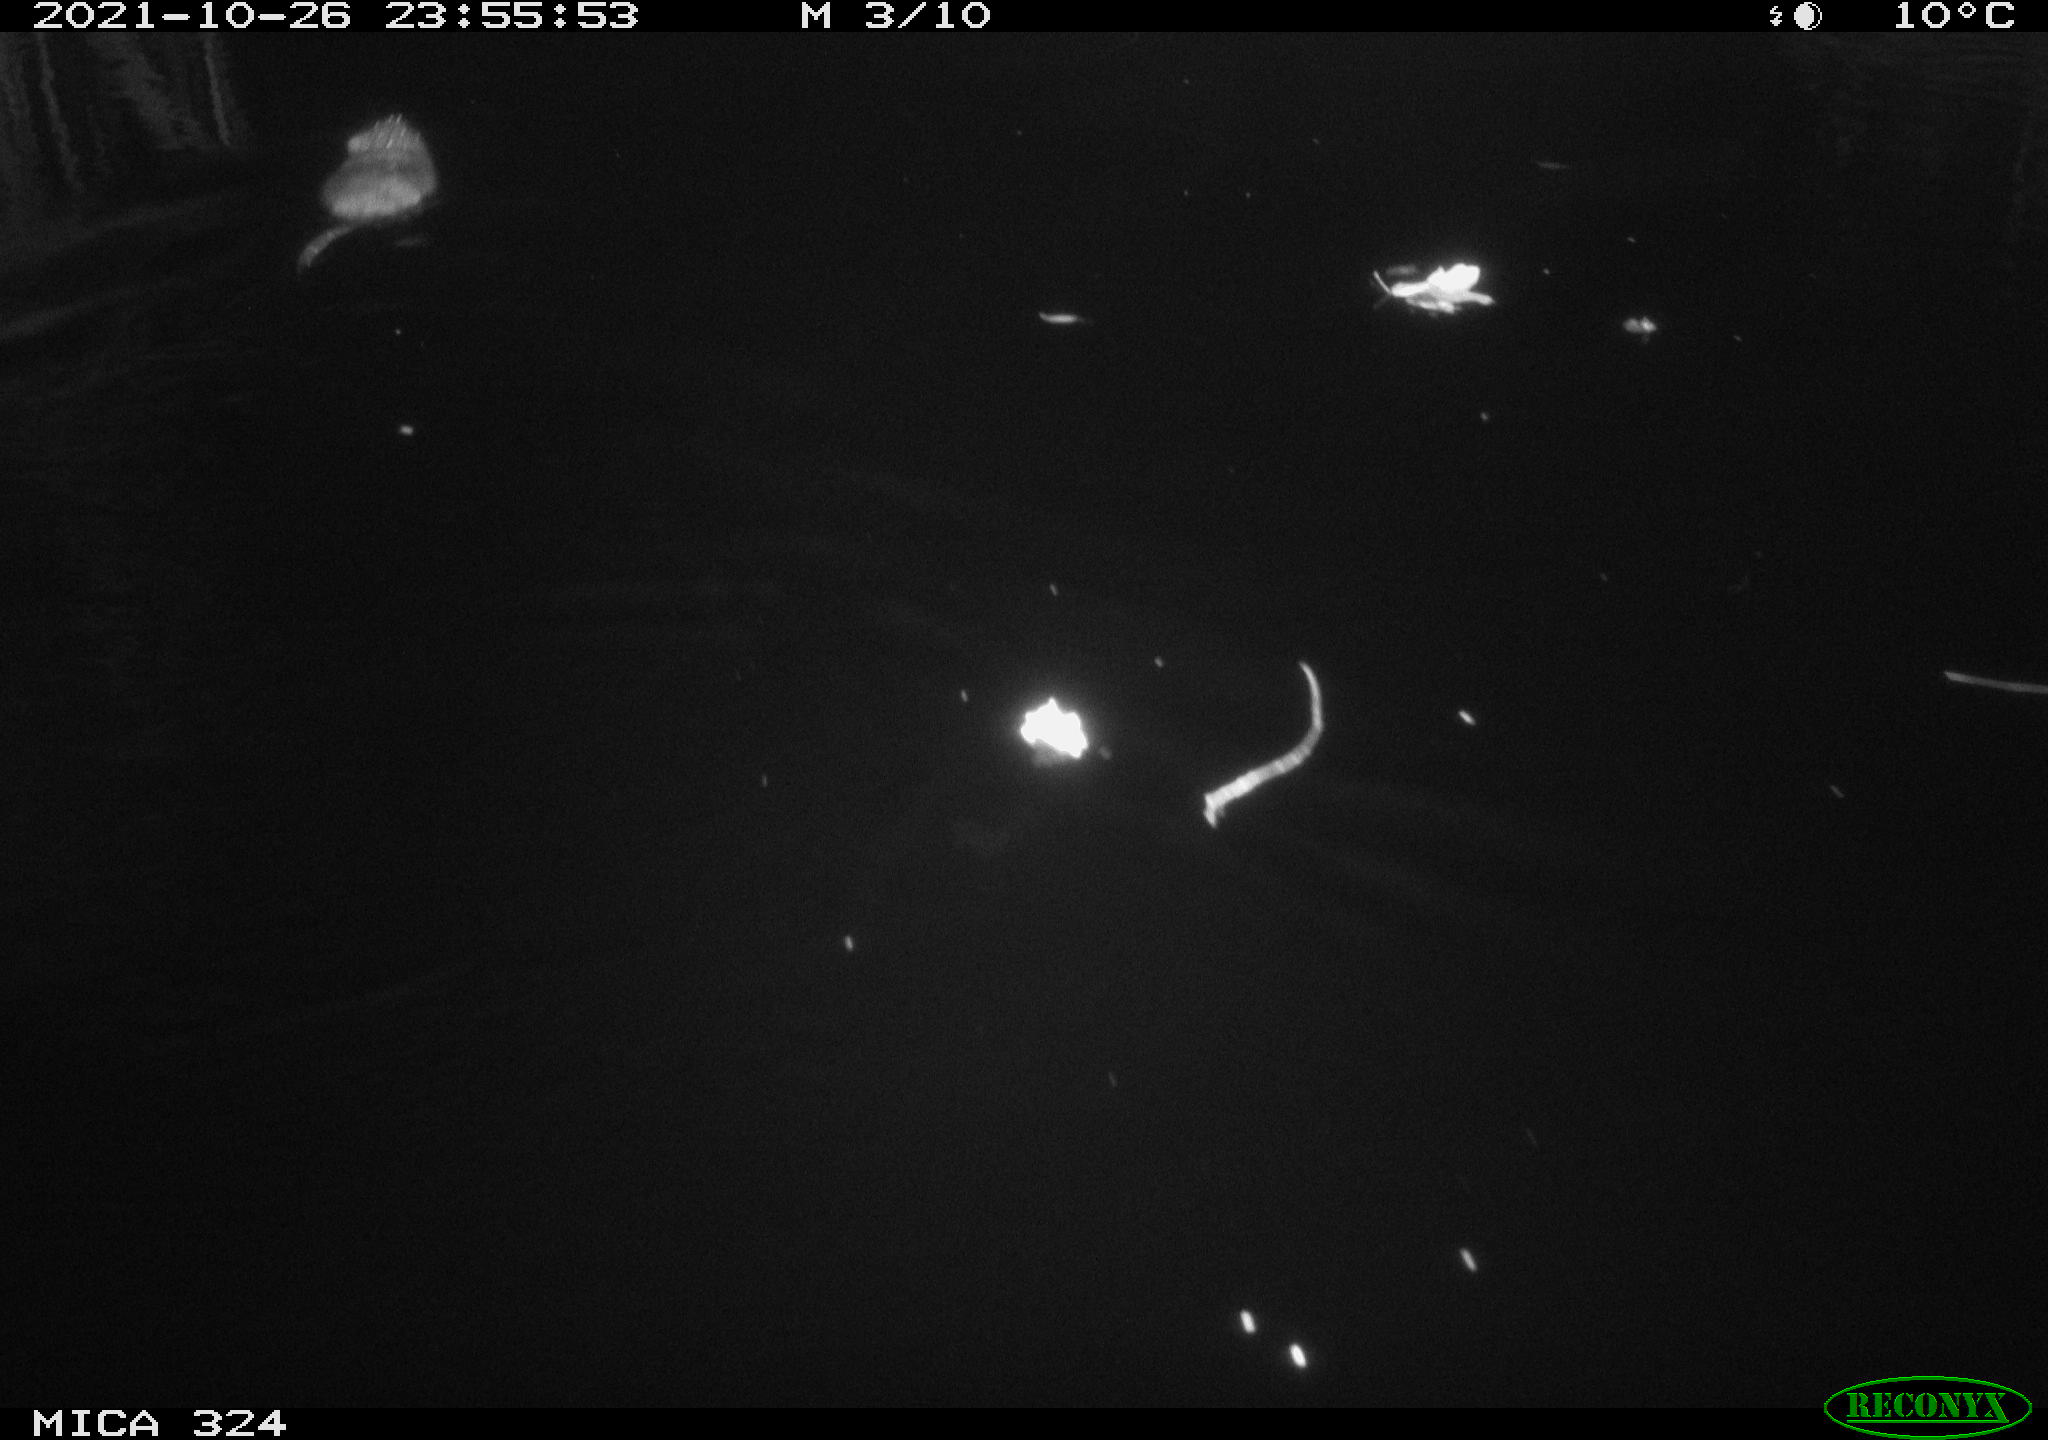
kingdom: Animalia
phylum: Chordata
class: Mammalia
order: Rodentia
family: Cricetidae
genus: Ondatra
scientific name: Ondatra zibethicus
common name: Muskrat
